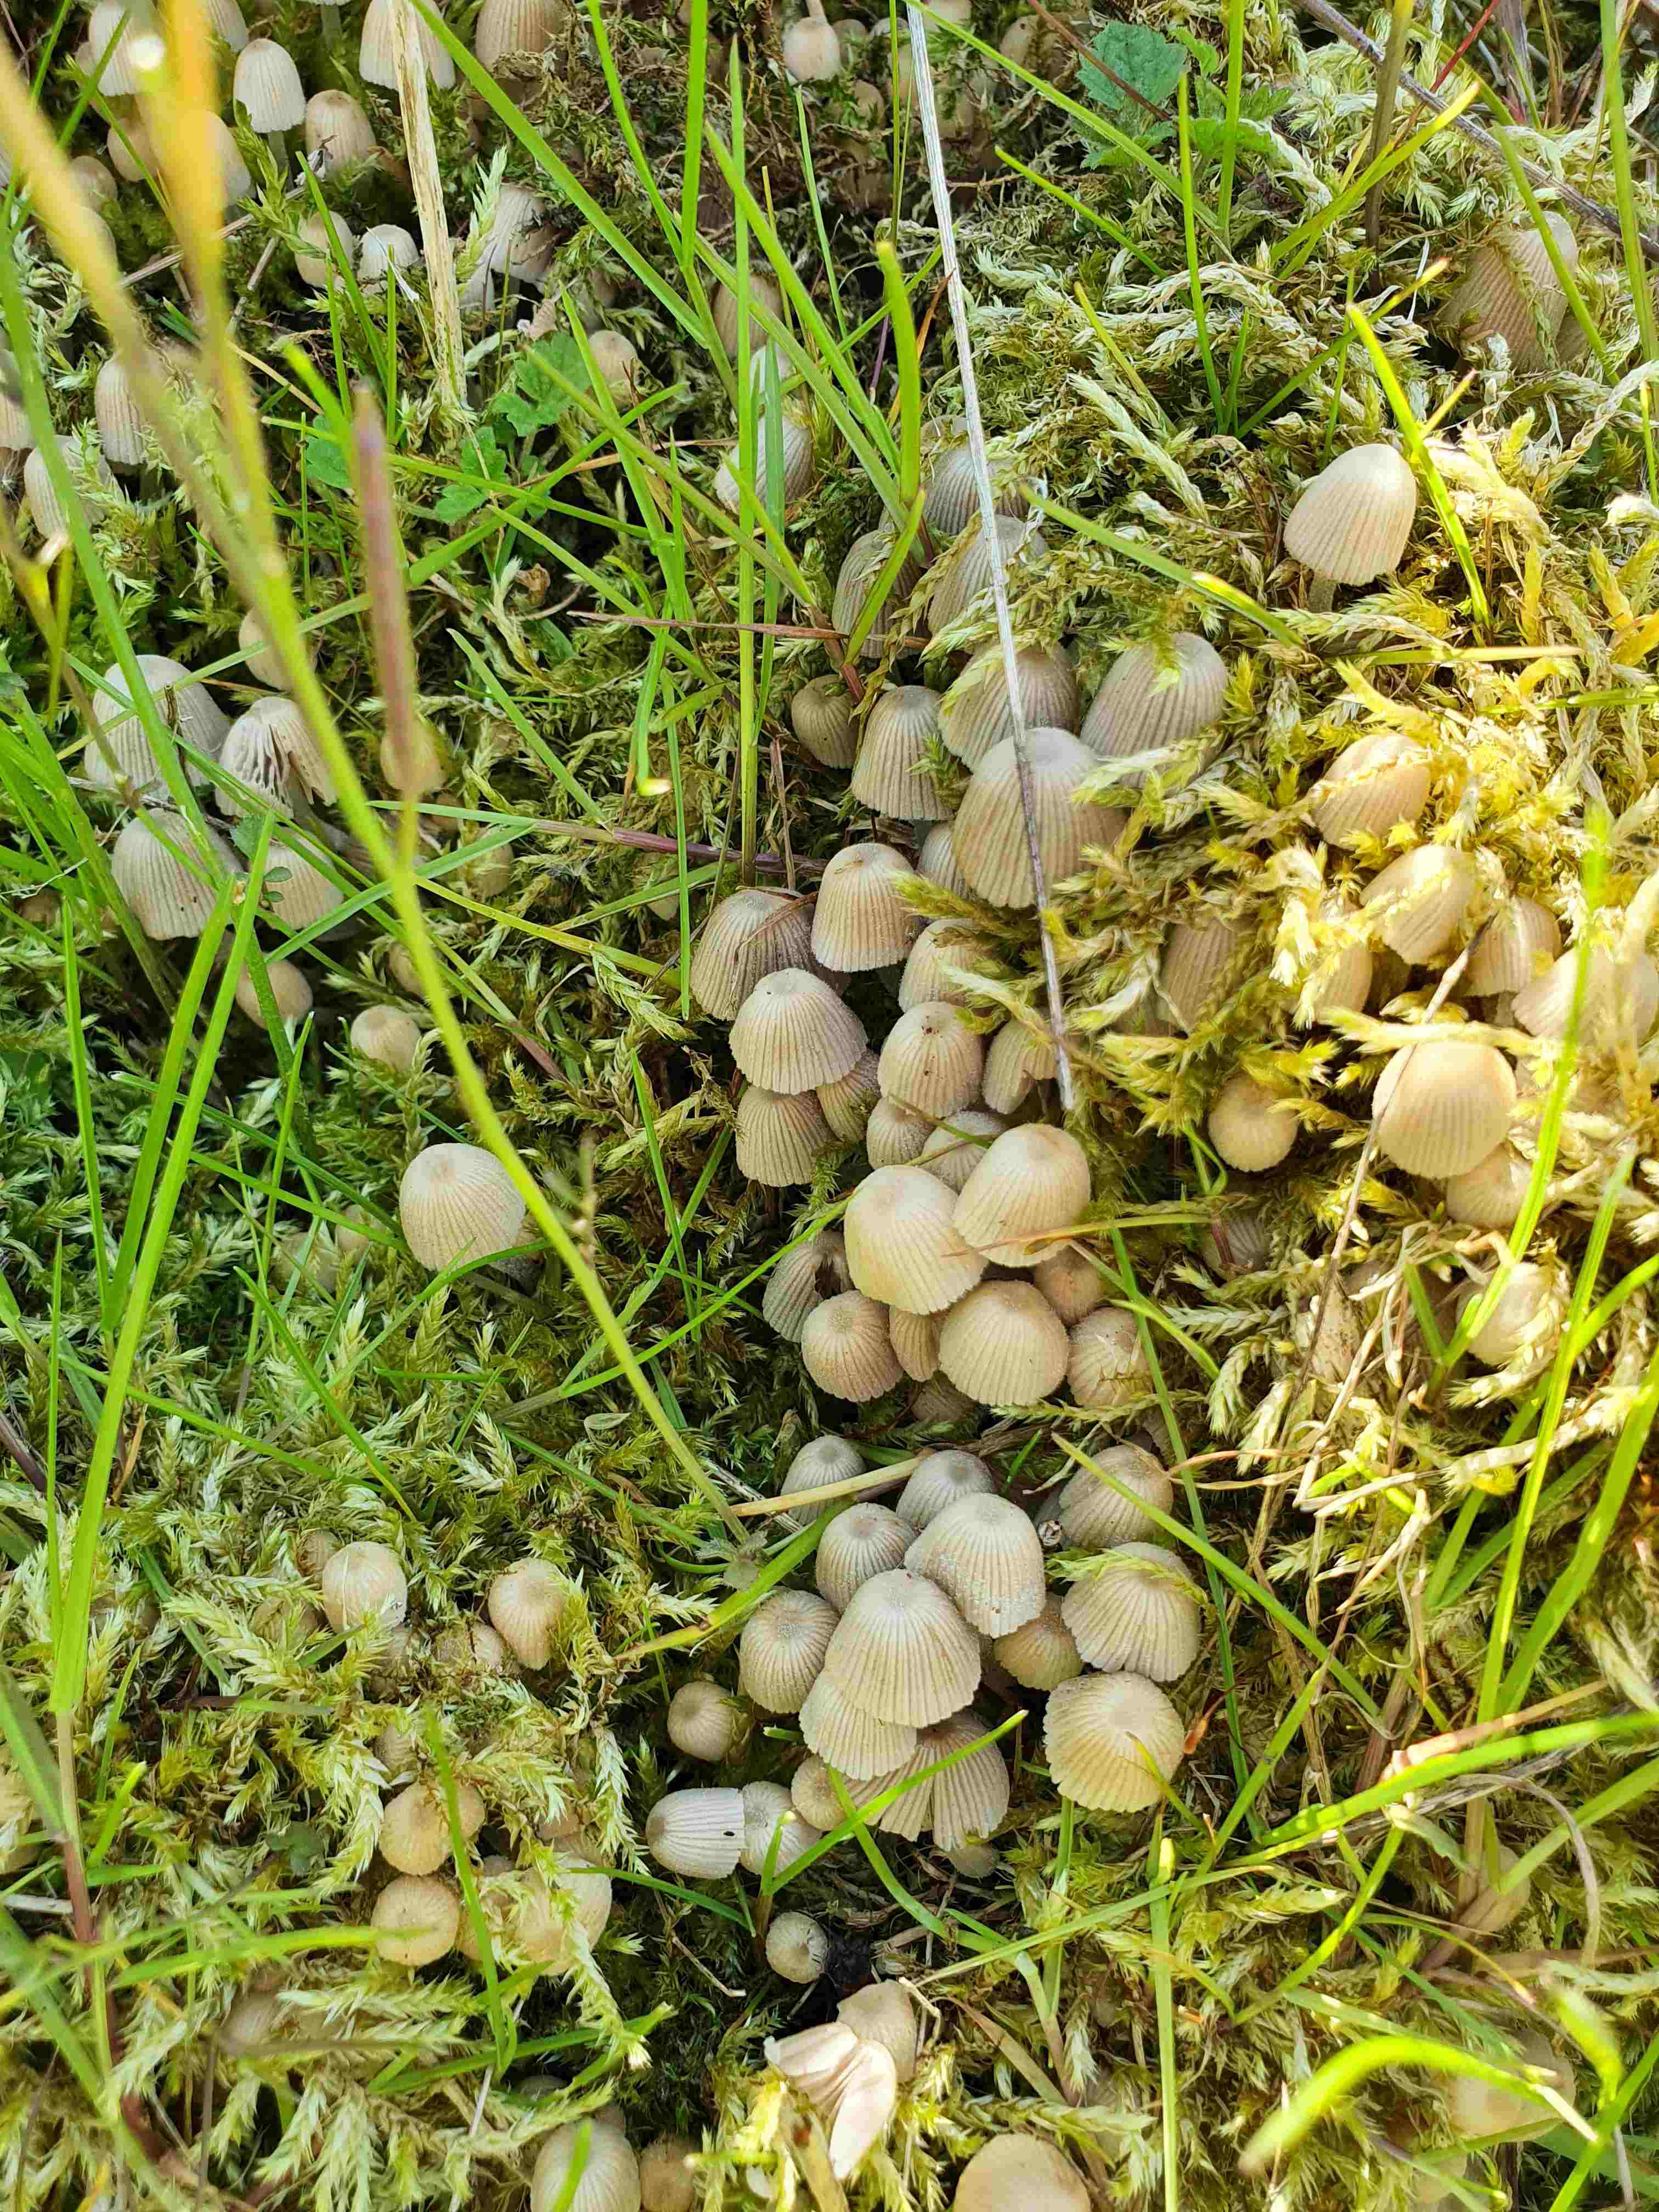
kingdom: Fungi
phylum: Basidiomycota
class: Agaricomycetes
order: Agaricales
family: Psathyrellaceae
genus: Coprinellus
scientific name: Coprinellus disseminatus
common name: bredsået blækhat
